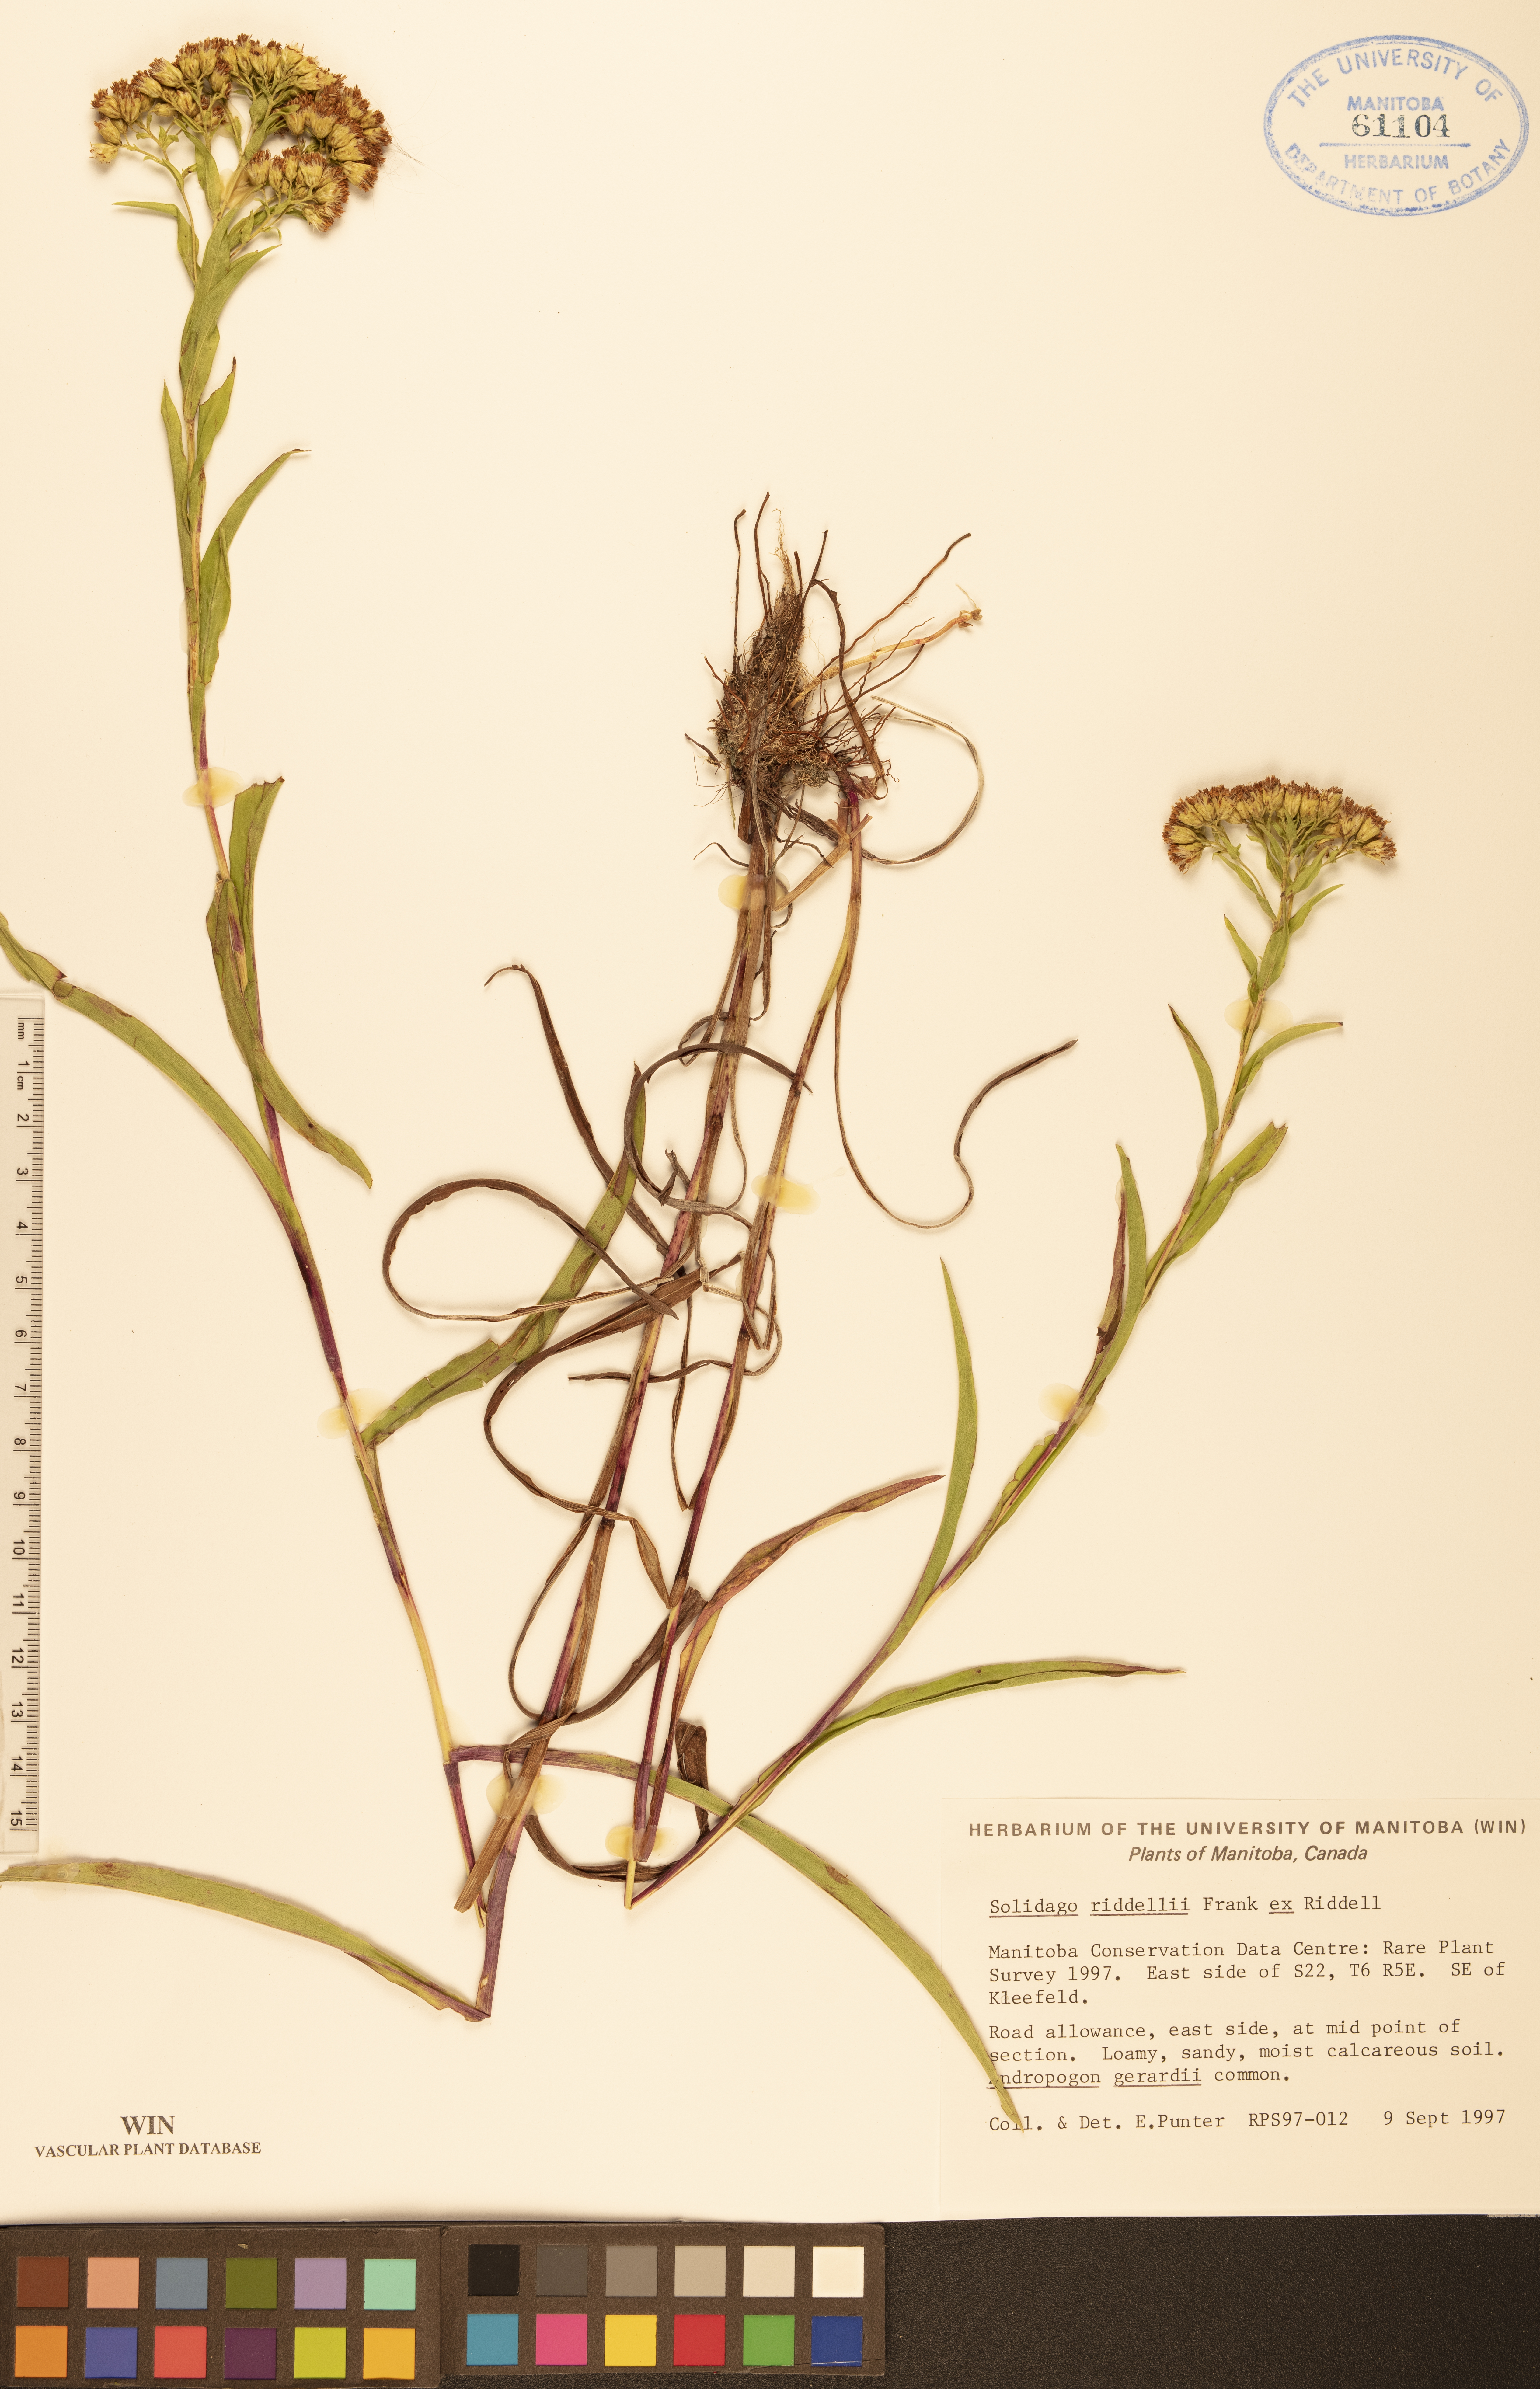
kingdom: Plantae
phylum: Tracheophyta
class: Magnoliopsida
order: Asterales
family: Asteraceae
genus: Solidago
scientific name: Solidago riddellii
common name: Riddell's goldenrod
